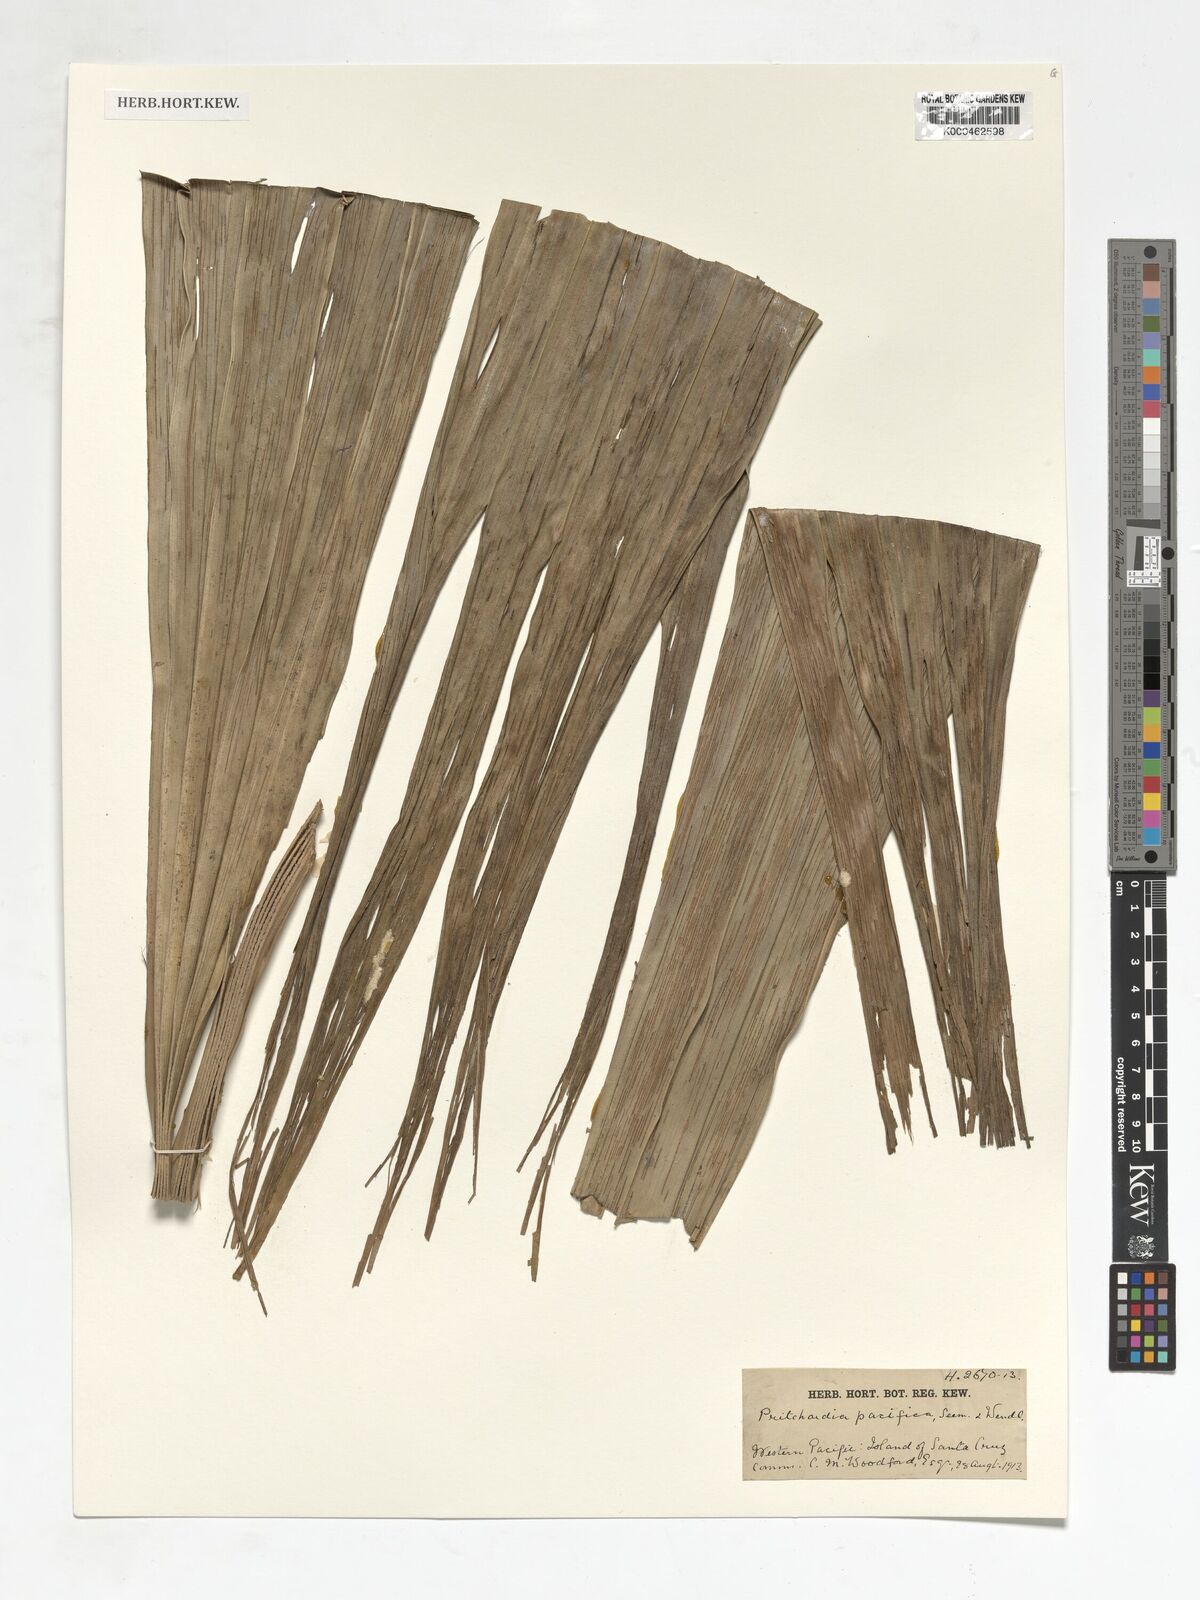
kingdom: Plantae
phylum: Tracheophyta
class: Liliopsida
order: Arecales
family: Arecaceae
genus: Pritchardia
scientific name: Pritchardia pacifica
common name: Fiji fan palm
